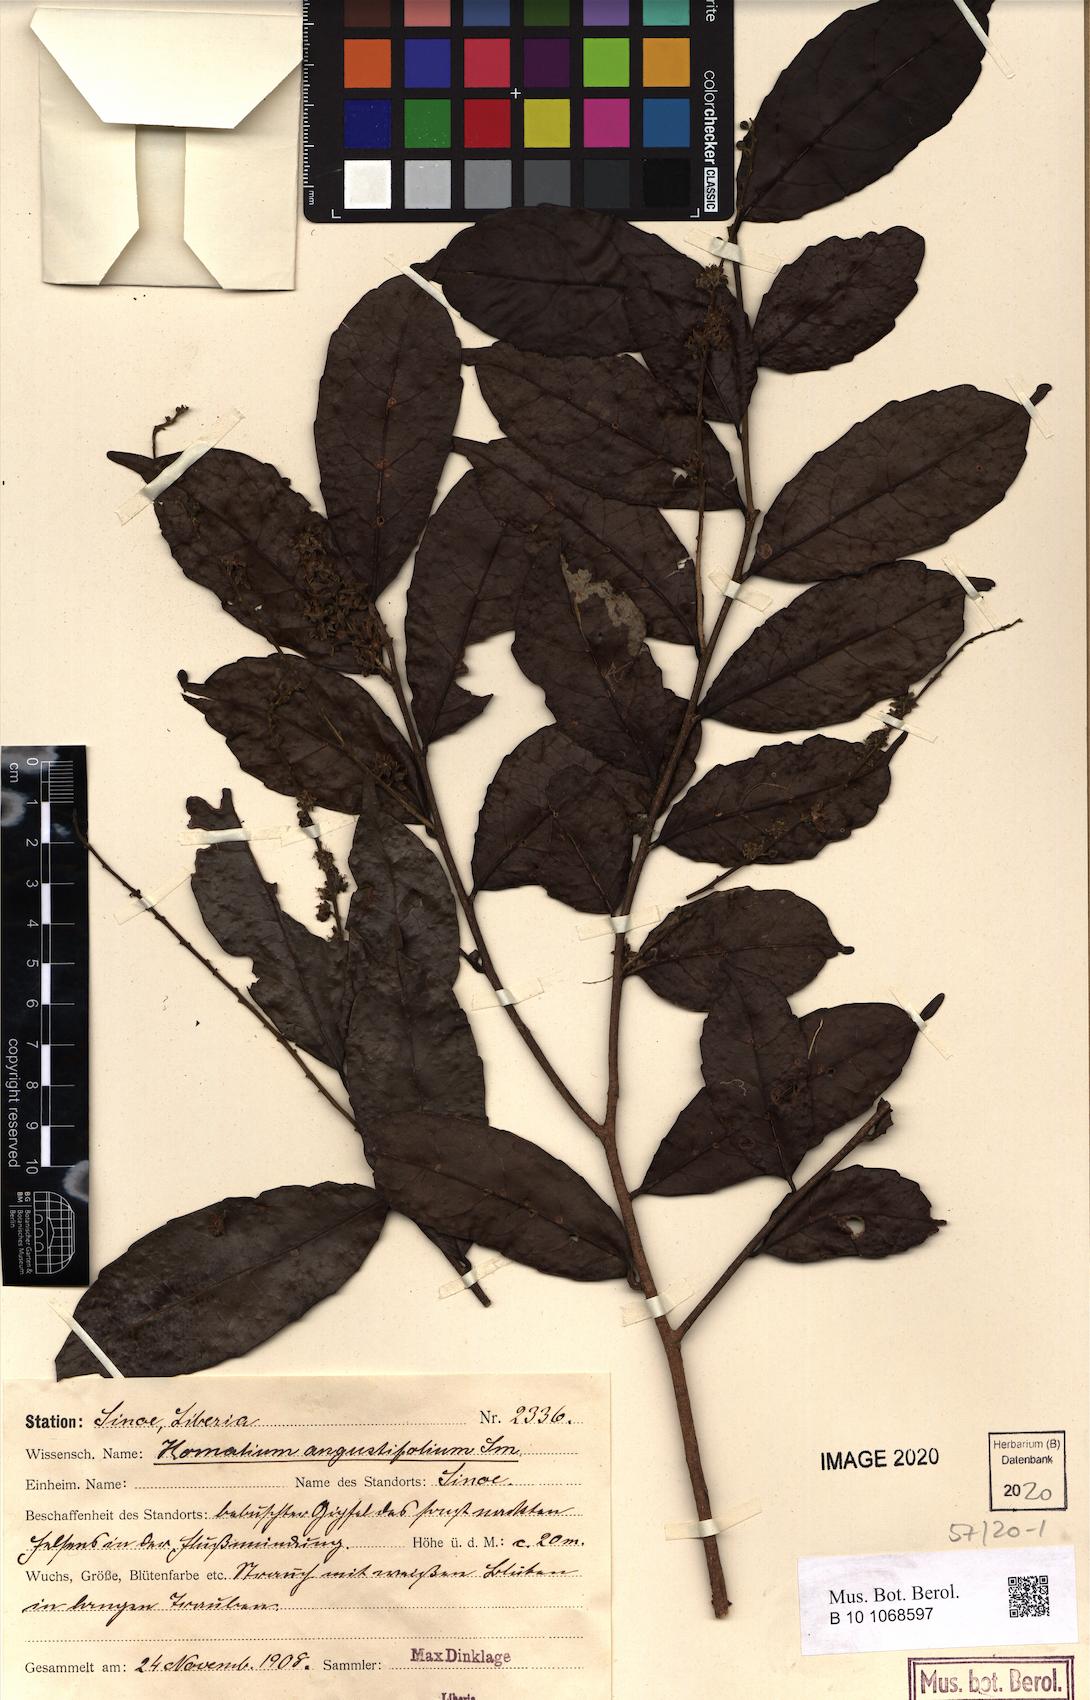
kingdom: Plantae
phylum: Tracheophyta
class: Magnoliopsida
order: Malpighiales
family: Salicaceae
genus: Homalium
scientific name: Homalium angustifolium
